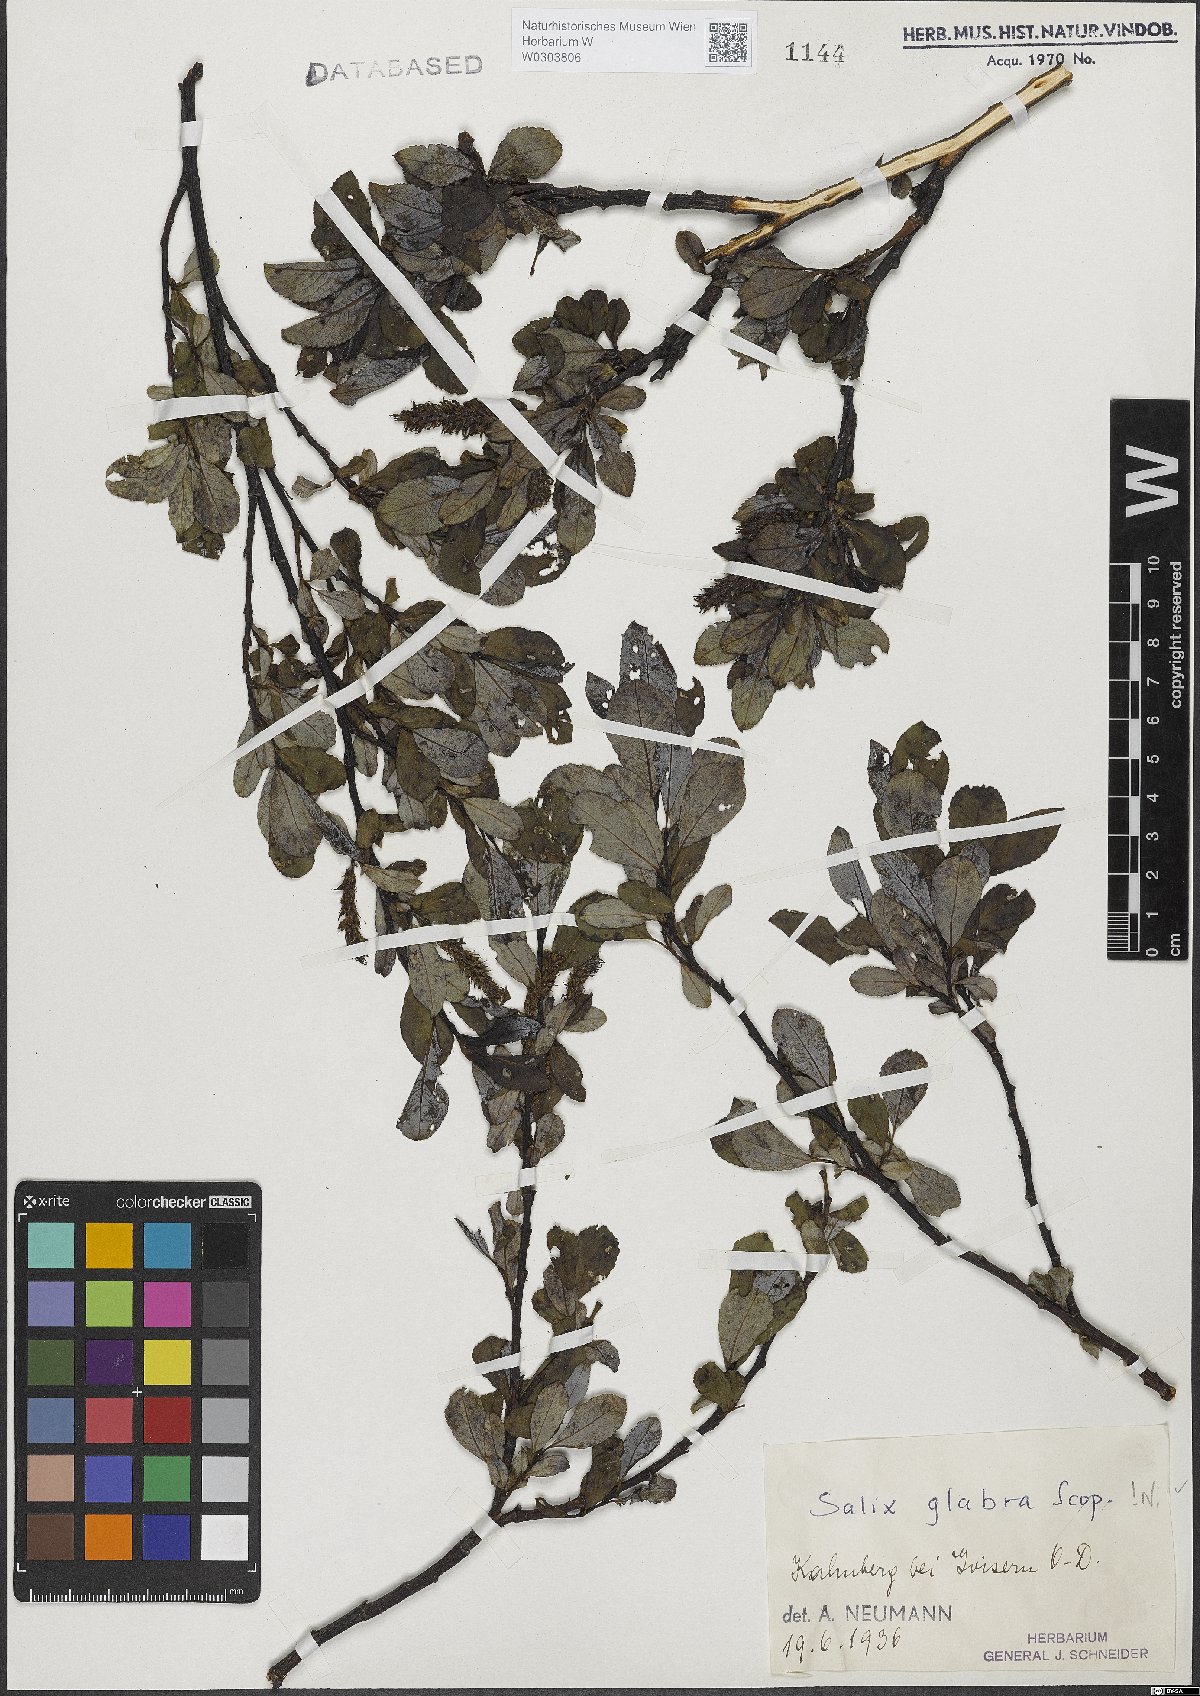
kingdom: Plantae
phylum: Tracheophyta
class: Magnoliopsida
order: Malpighiales
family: Salicaceae
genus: Salix
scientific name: Salix glabra
